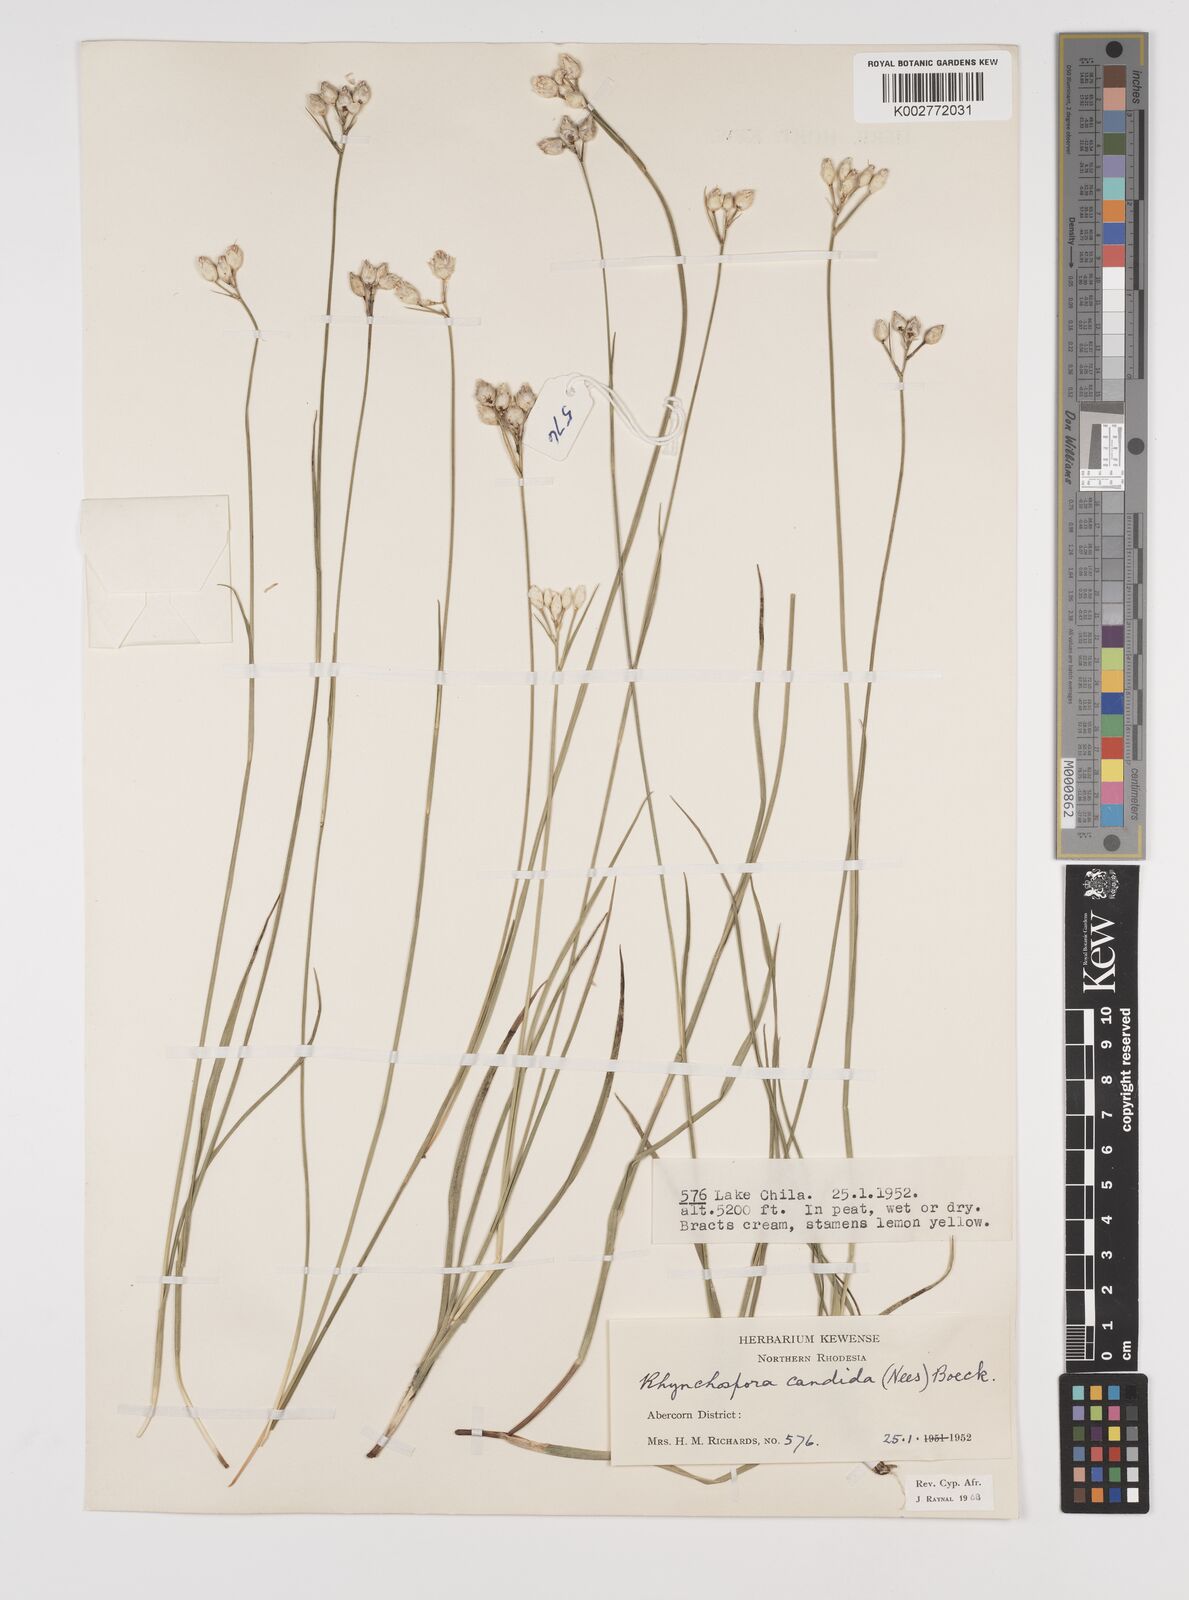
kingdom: Plantae
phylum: Tracheophyta
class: Liliopsida
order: Poales
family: Cyperaceae
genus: Rhynchospora
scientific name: Rhynchospora candida
